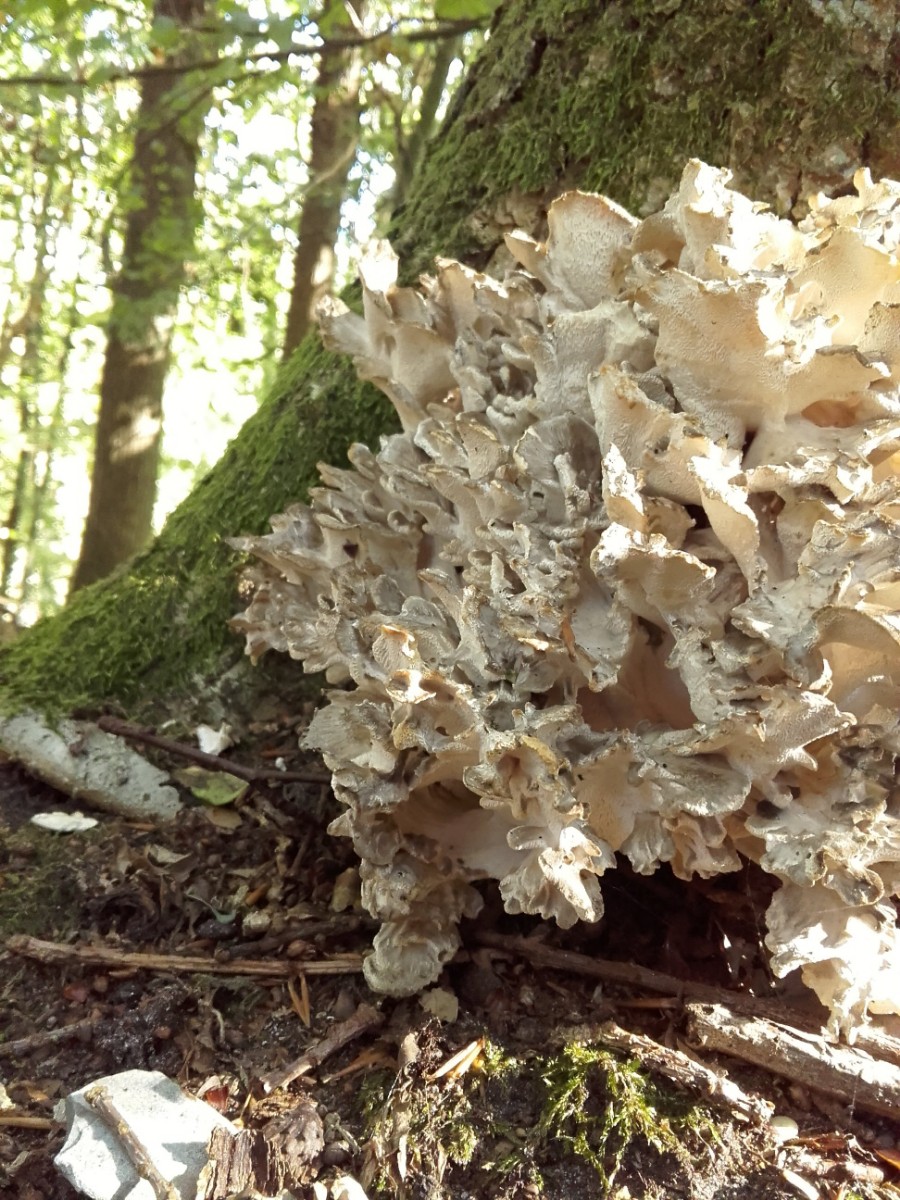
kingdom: Fungi
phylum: Basidiomycota
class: Agaricomycetes
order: Polyporales
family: Grifolaceae
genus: Grifola
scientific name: Grifola frondosa
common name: tueporesvamp
